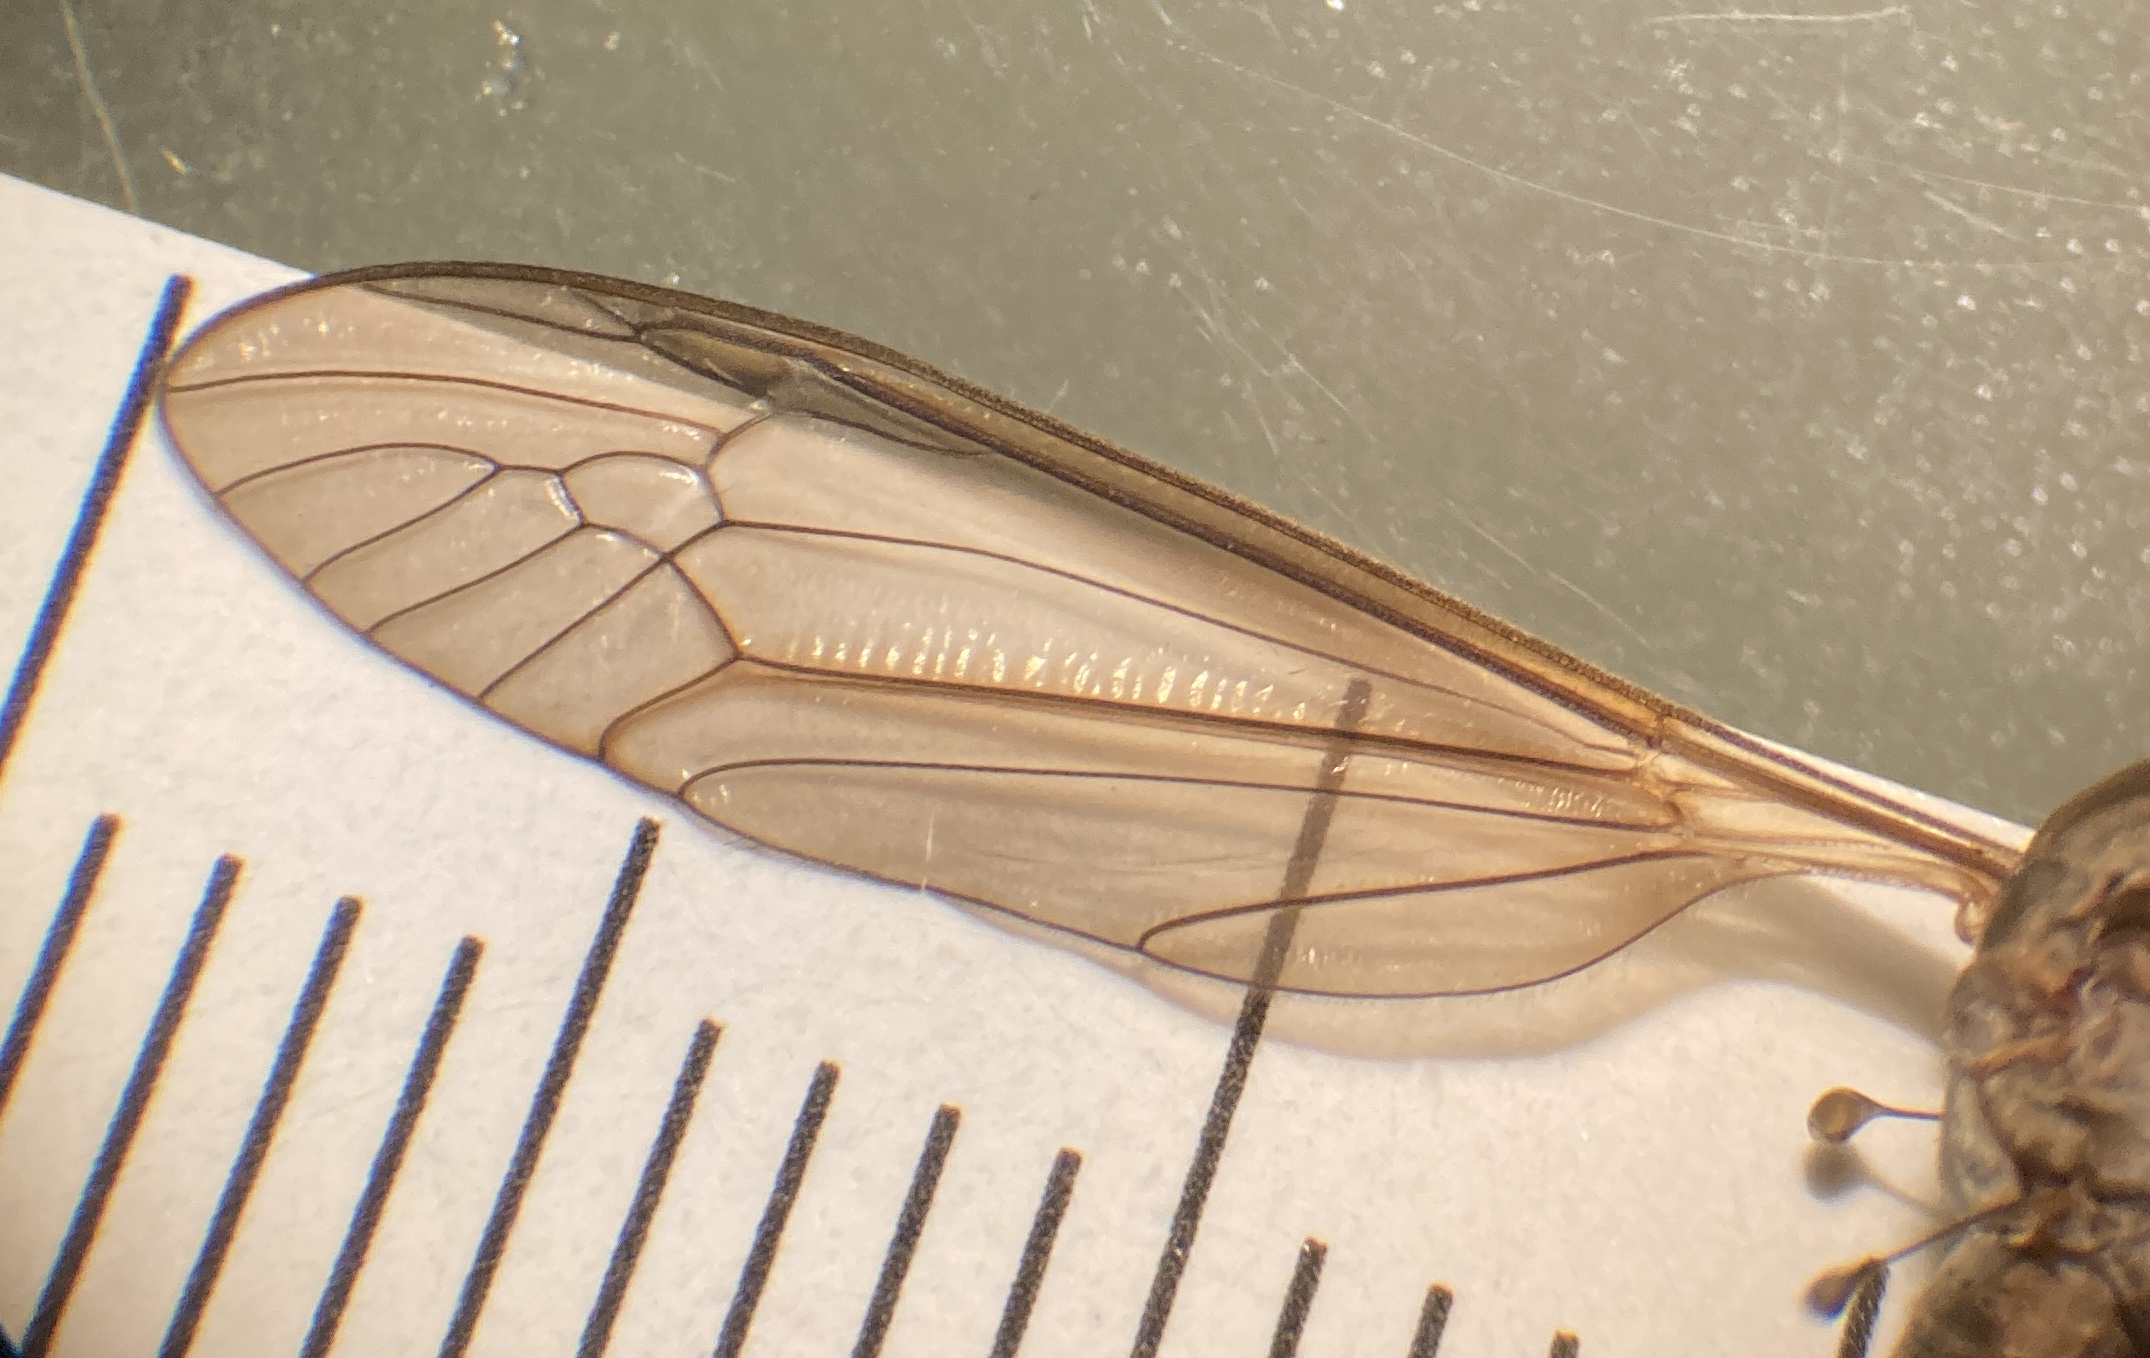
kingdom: Animalia
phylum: Arthropoda
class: Insecta
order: Diptera
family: Tipulidae
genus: Tipula
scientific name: Tipula paludosa
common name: Mosestankelben
